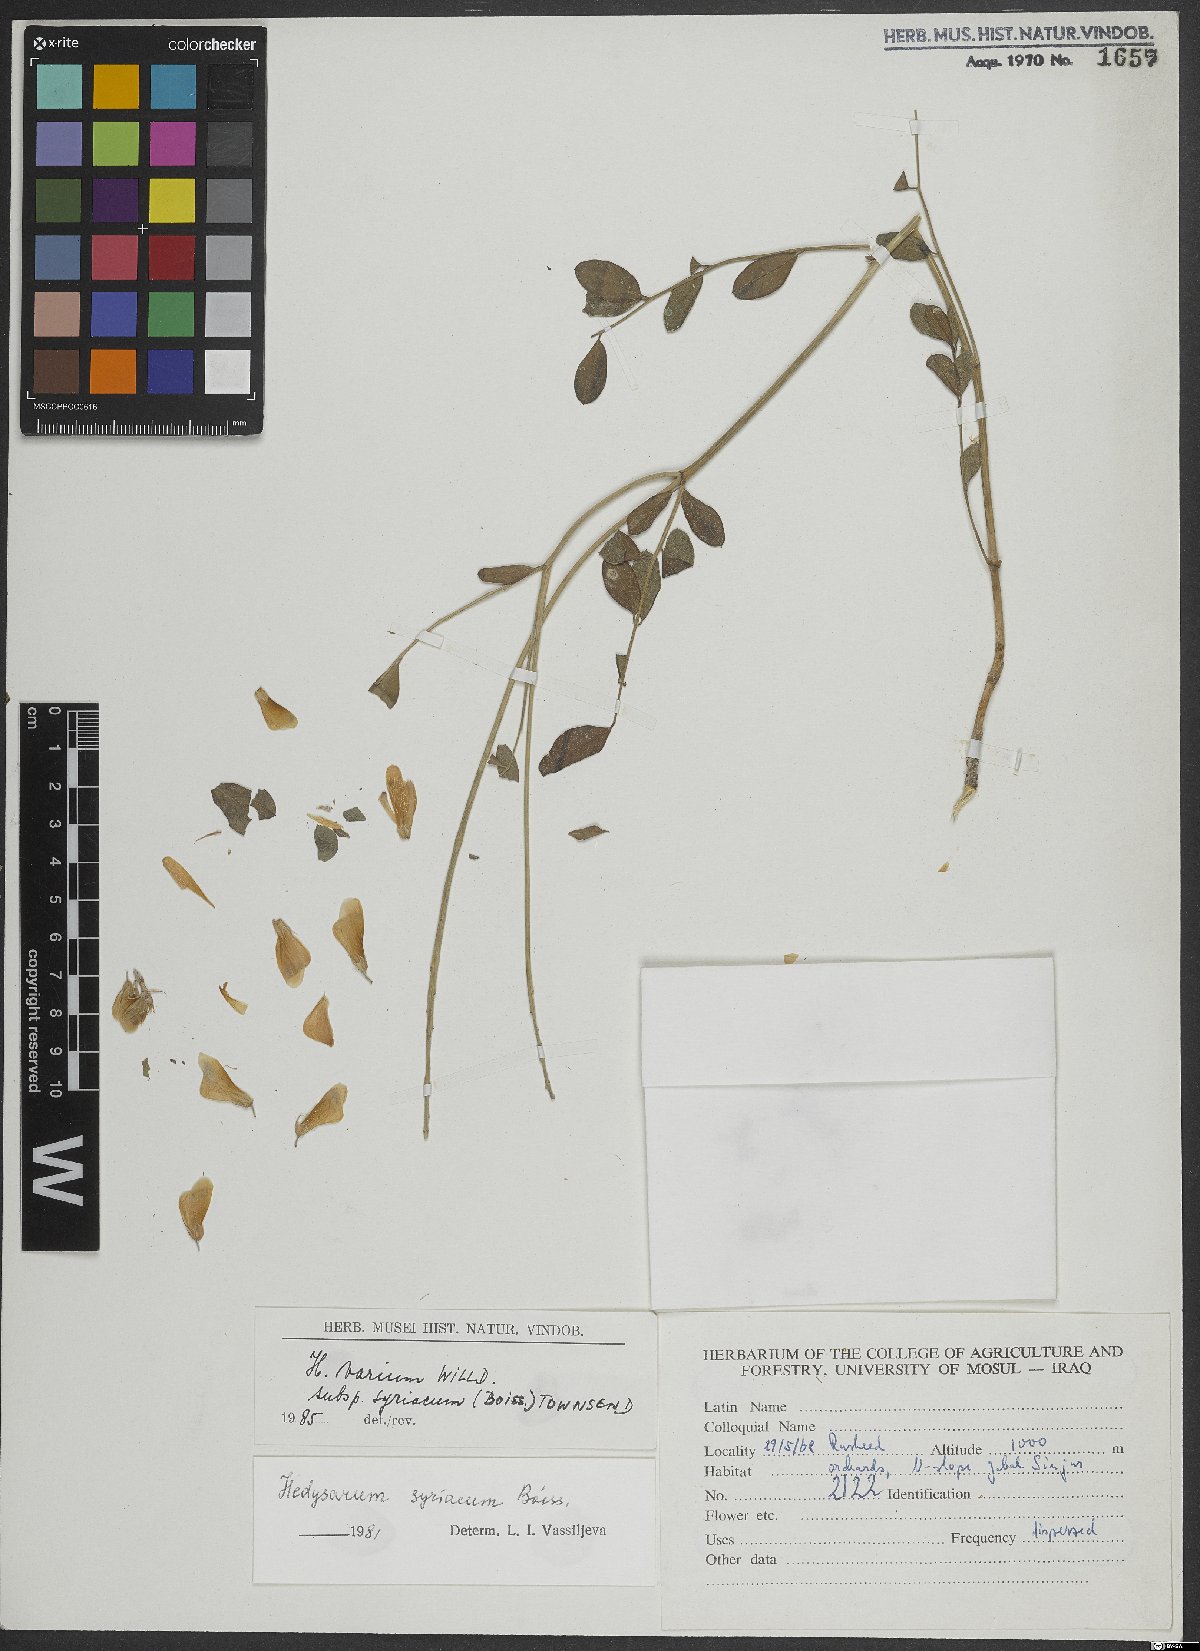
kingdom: Plantae
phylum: Tracheophyta
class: Magnoliopsida
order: Fabales
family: Fabaceae
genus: Hedysarum
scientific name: Hedysarum syriacum
